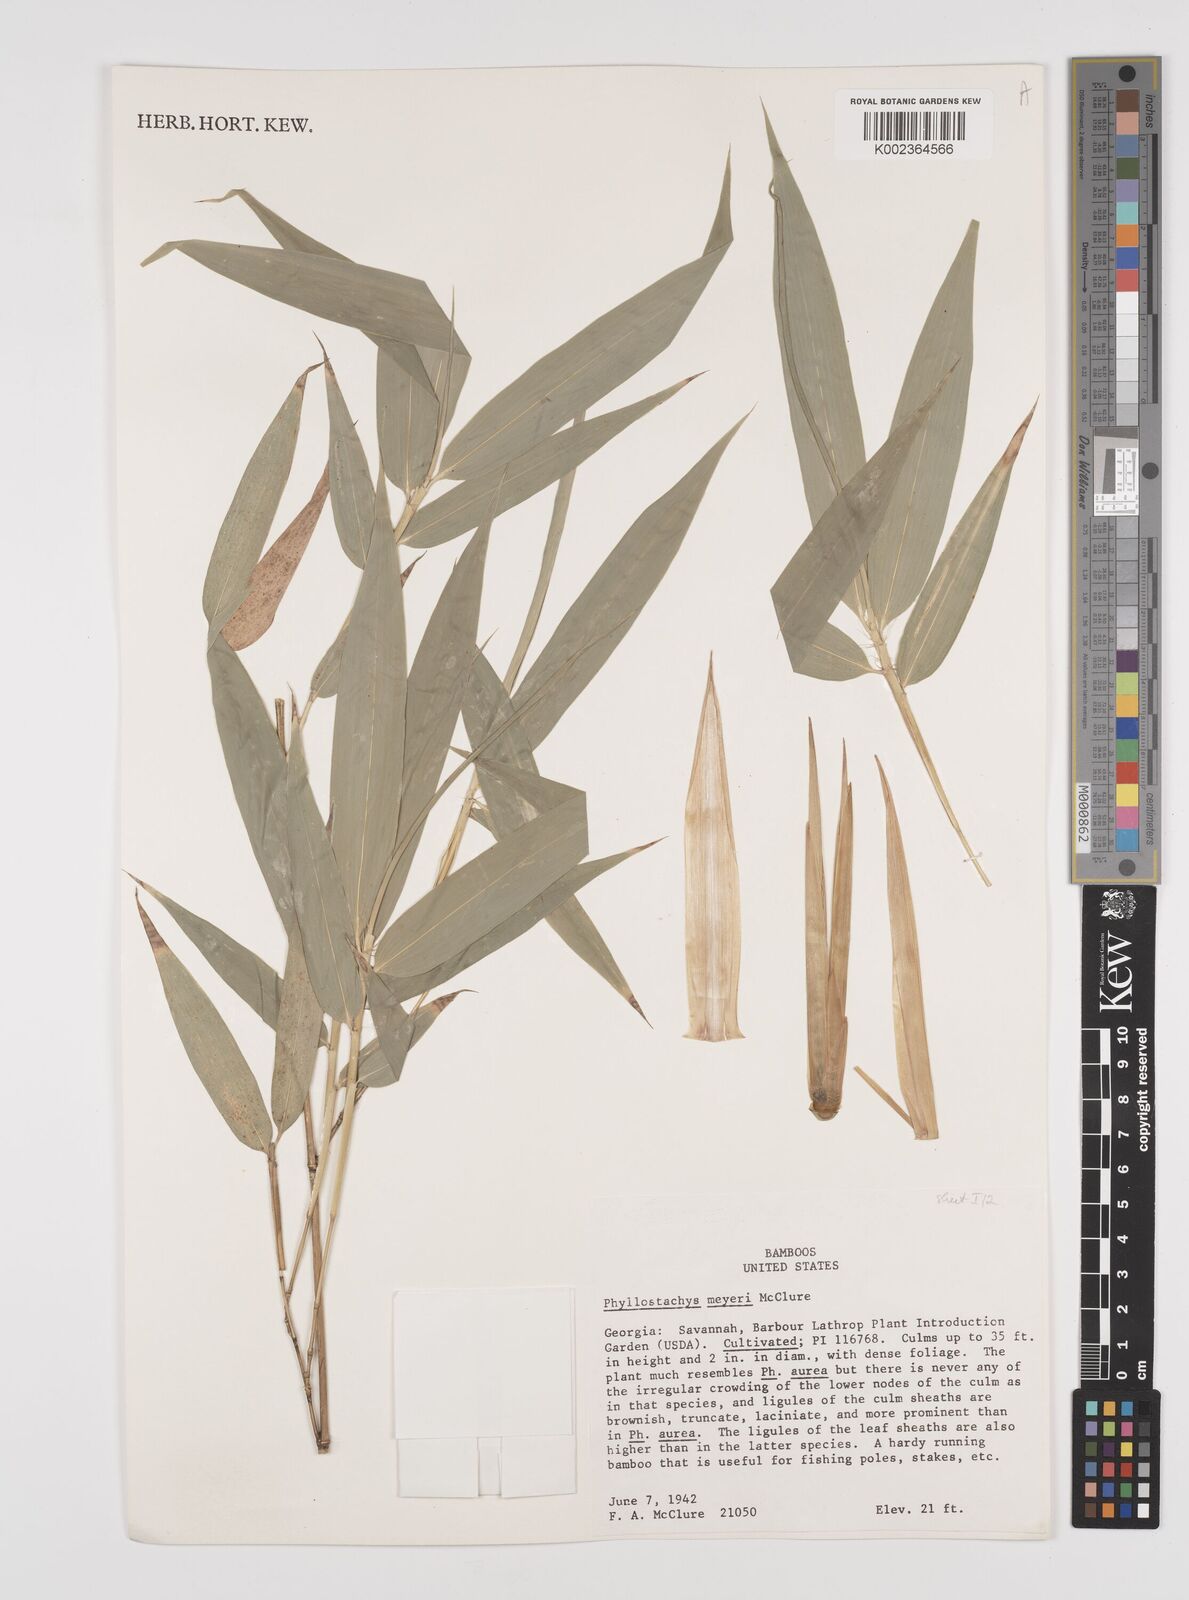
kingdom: Plantae
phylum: Tracheophyta
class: Liliopsida
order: Poales
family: Poaceae
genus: Phyllostachys
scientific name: Phyllostachys meyeri
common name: Meyer's bamboo
